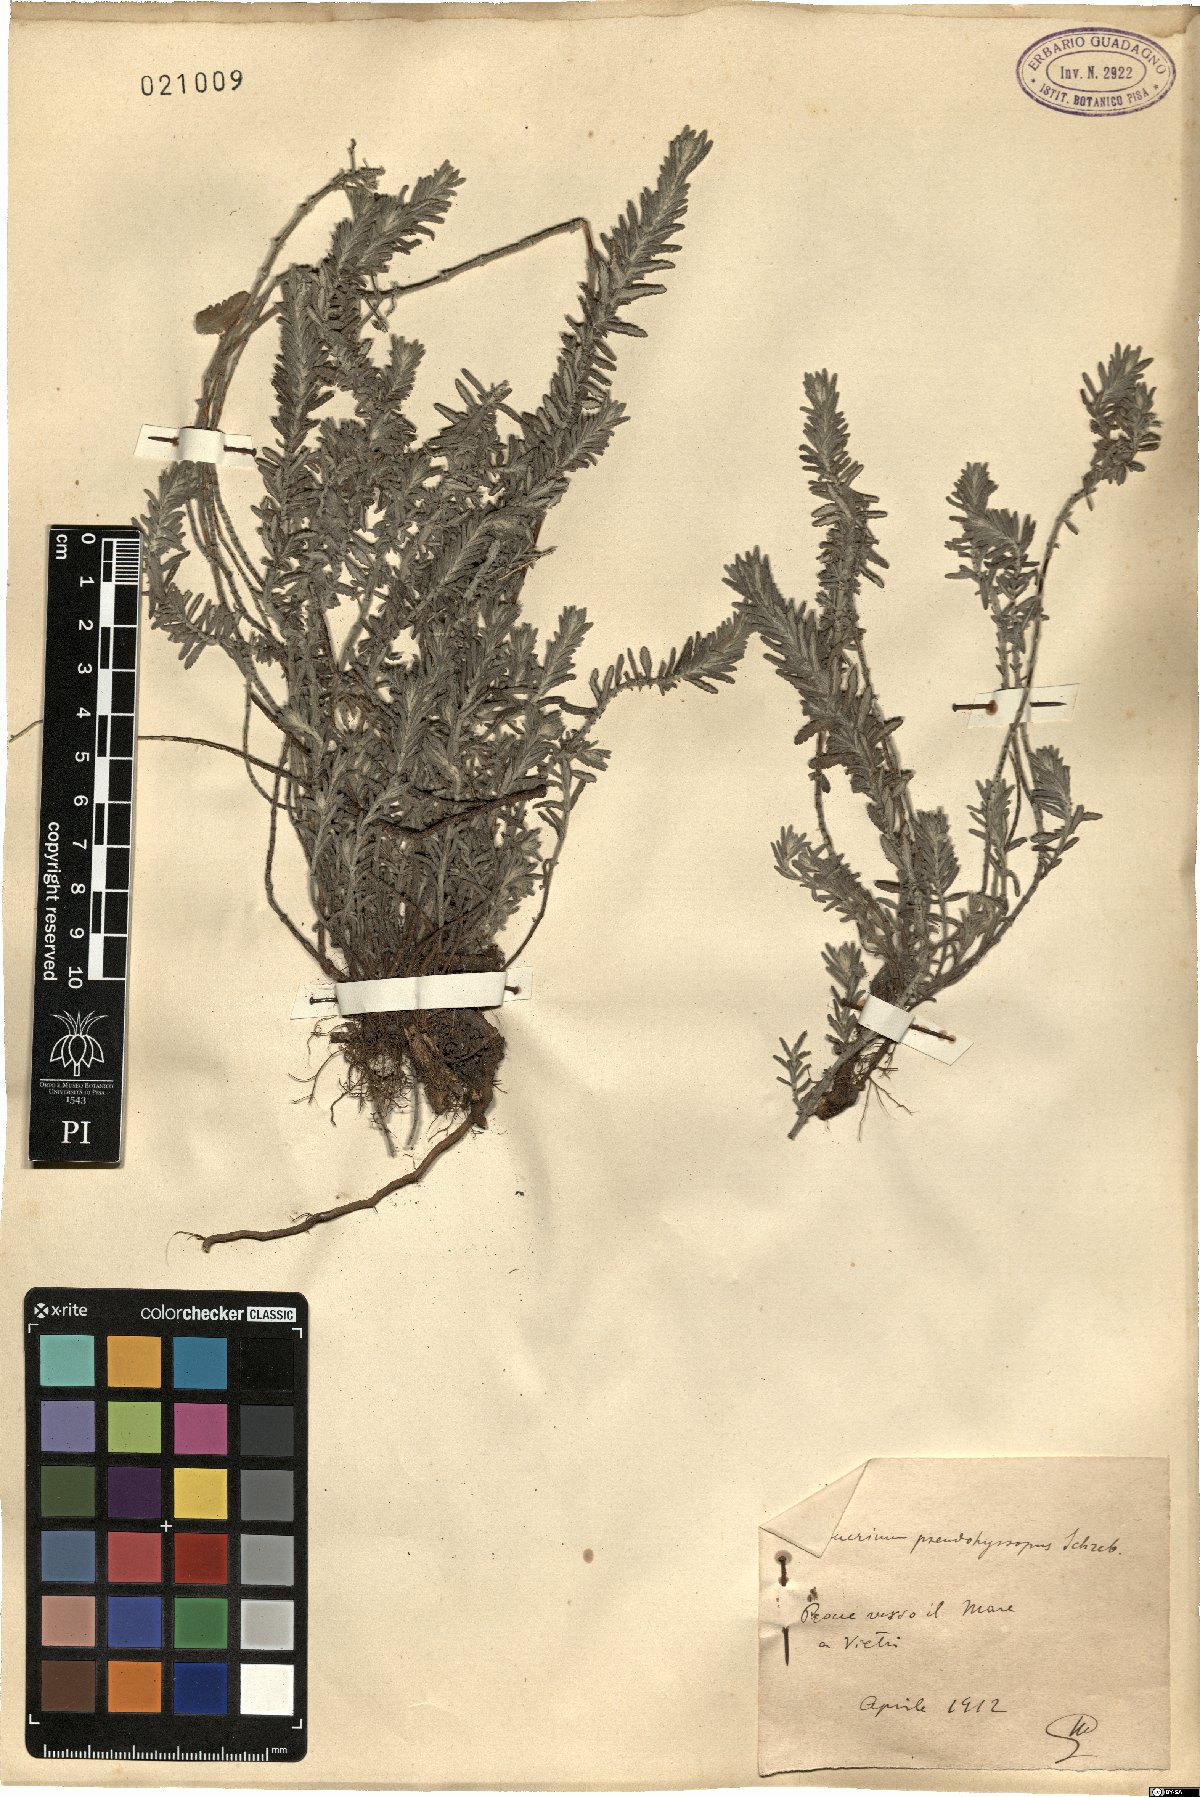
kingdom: Plantae
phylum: Tracheophyta
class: Magnoliopsida
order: Lamiales
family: Lamiaceae
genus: Teucrium
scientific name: Teucrium polium
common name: Poley
